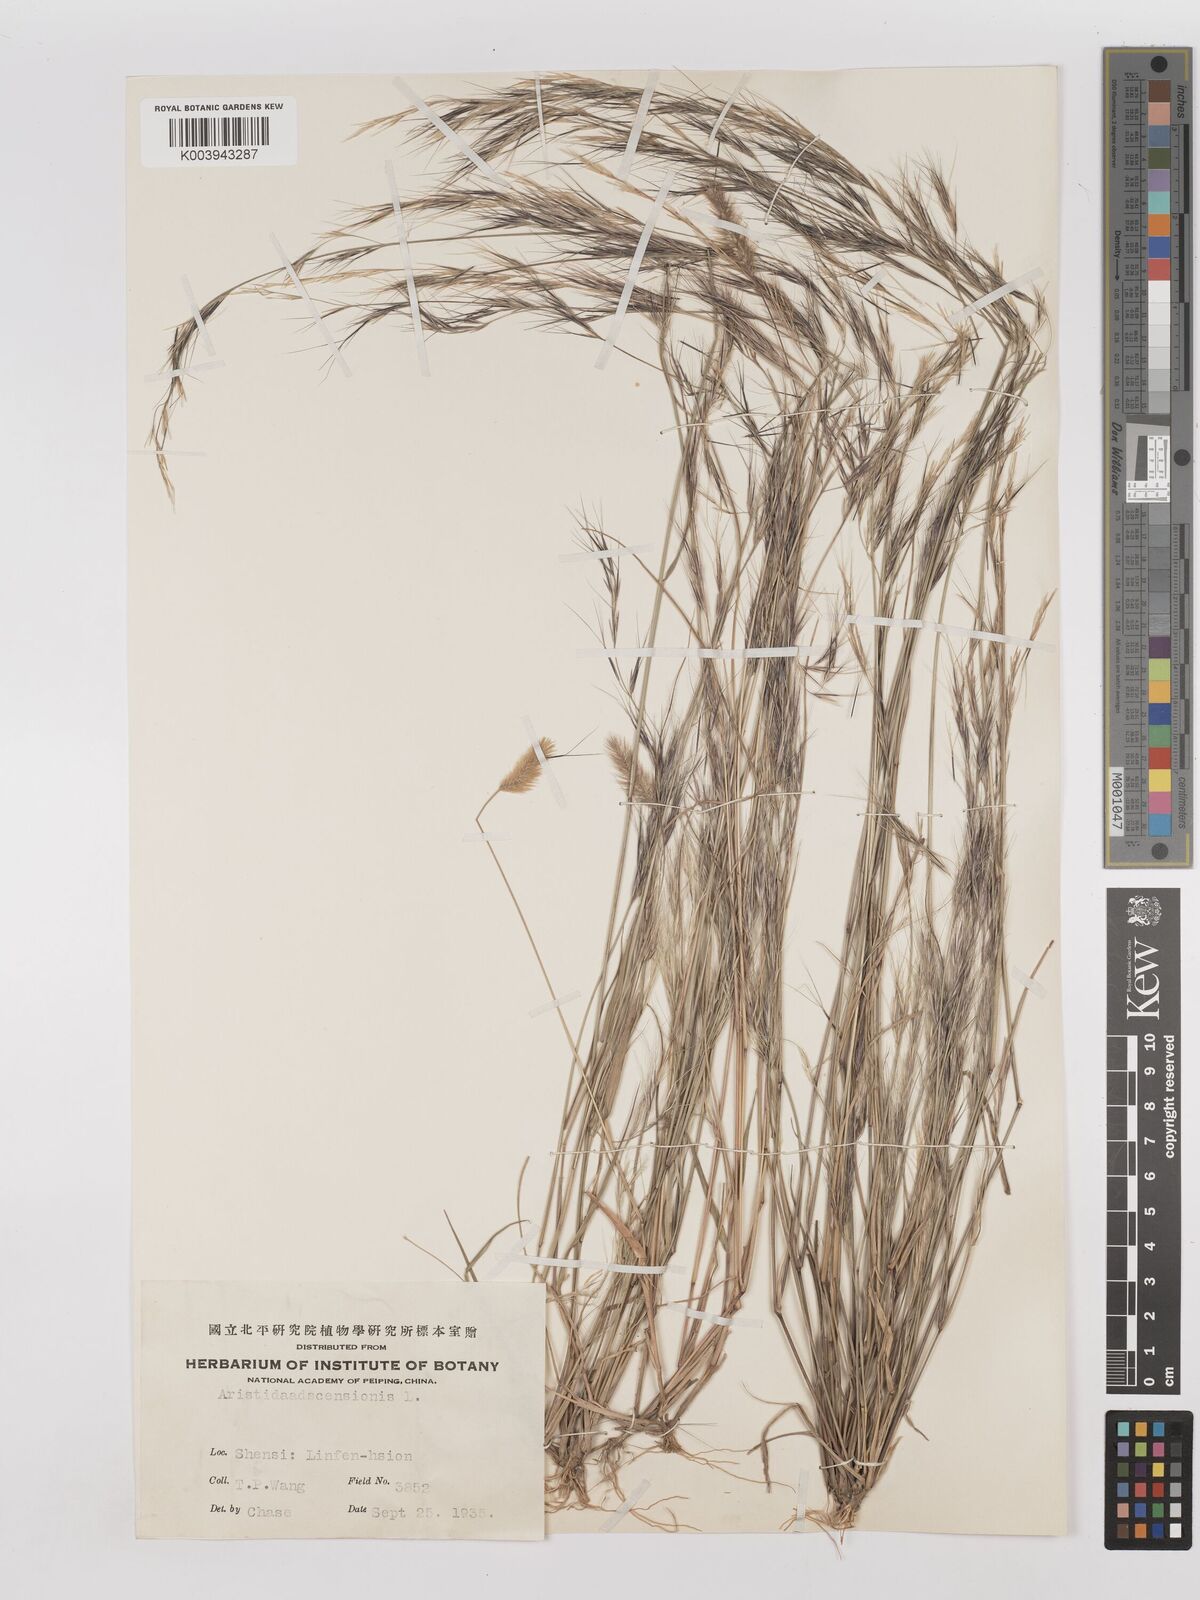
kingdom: Plantae
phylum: Tracheophyta
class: Liliopsida
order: Poales
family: Poaceae
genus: Aristida
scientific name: Aristida adscensionis
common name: Sixweeks threeawn
